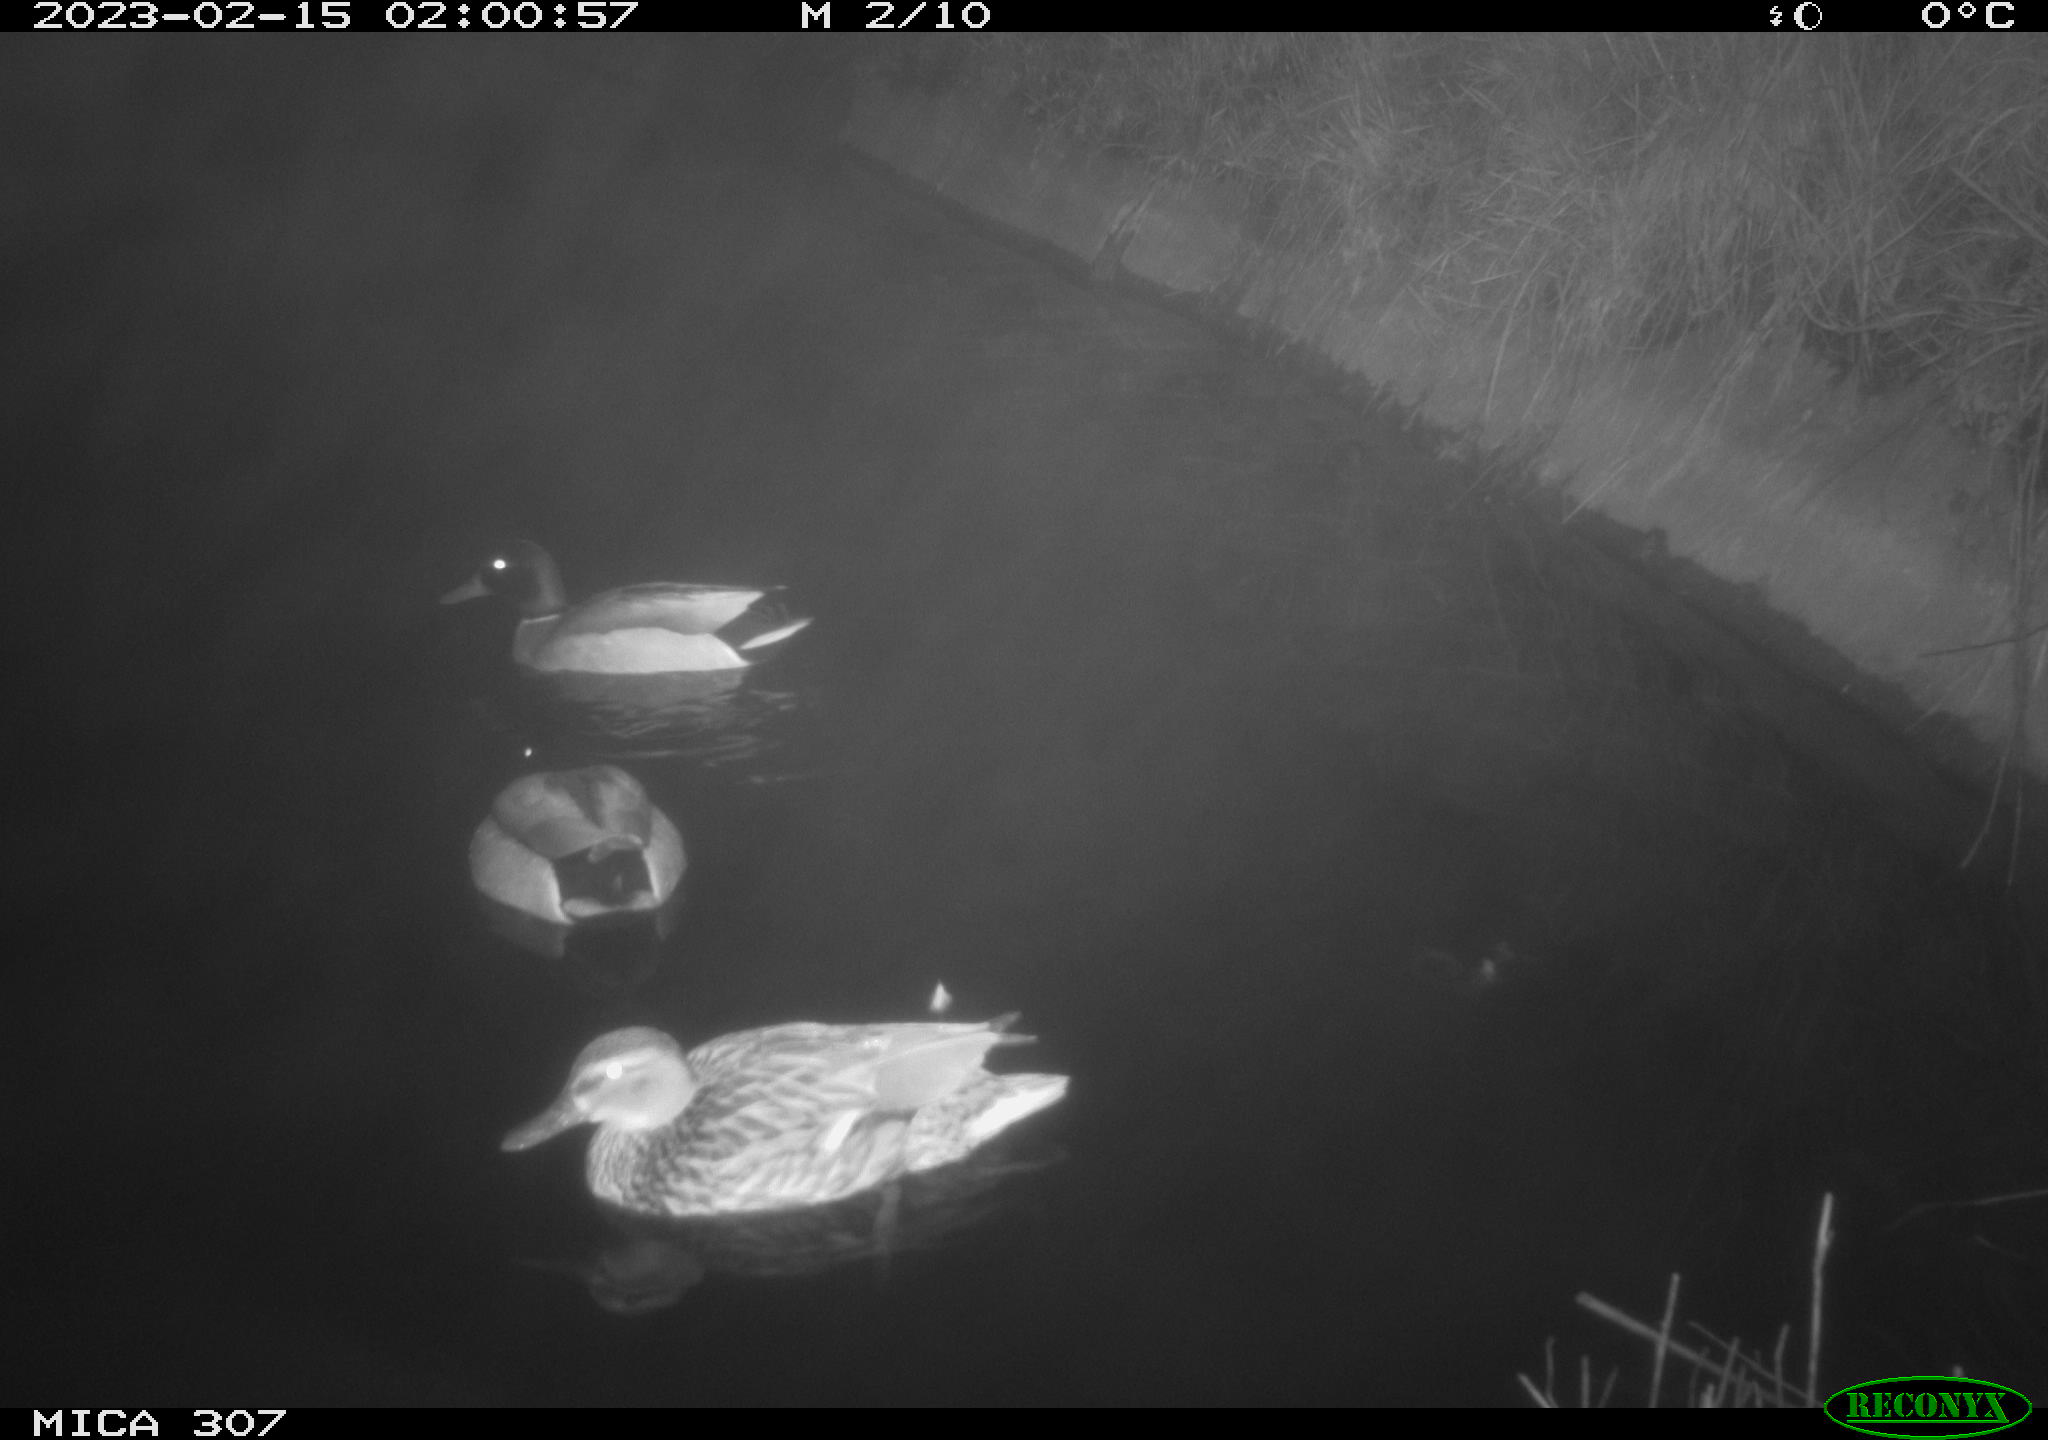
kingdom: Animalia
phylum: Chordata
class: Aves
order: Anseriformes
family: Anatidae
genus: Anas
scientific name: Anas
